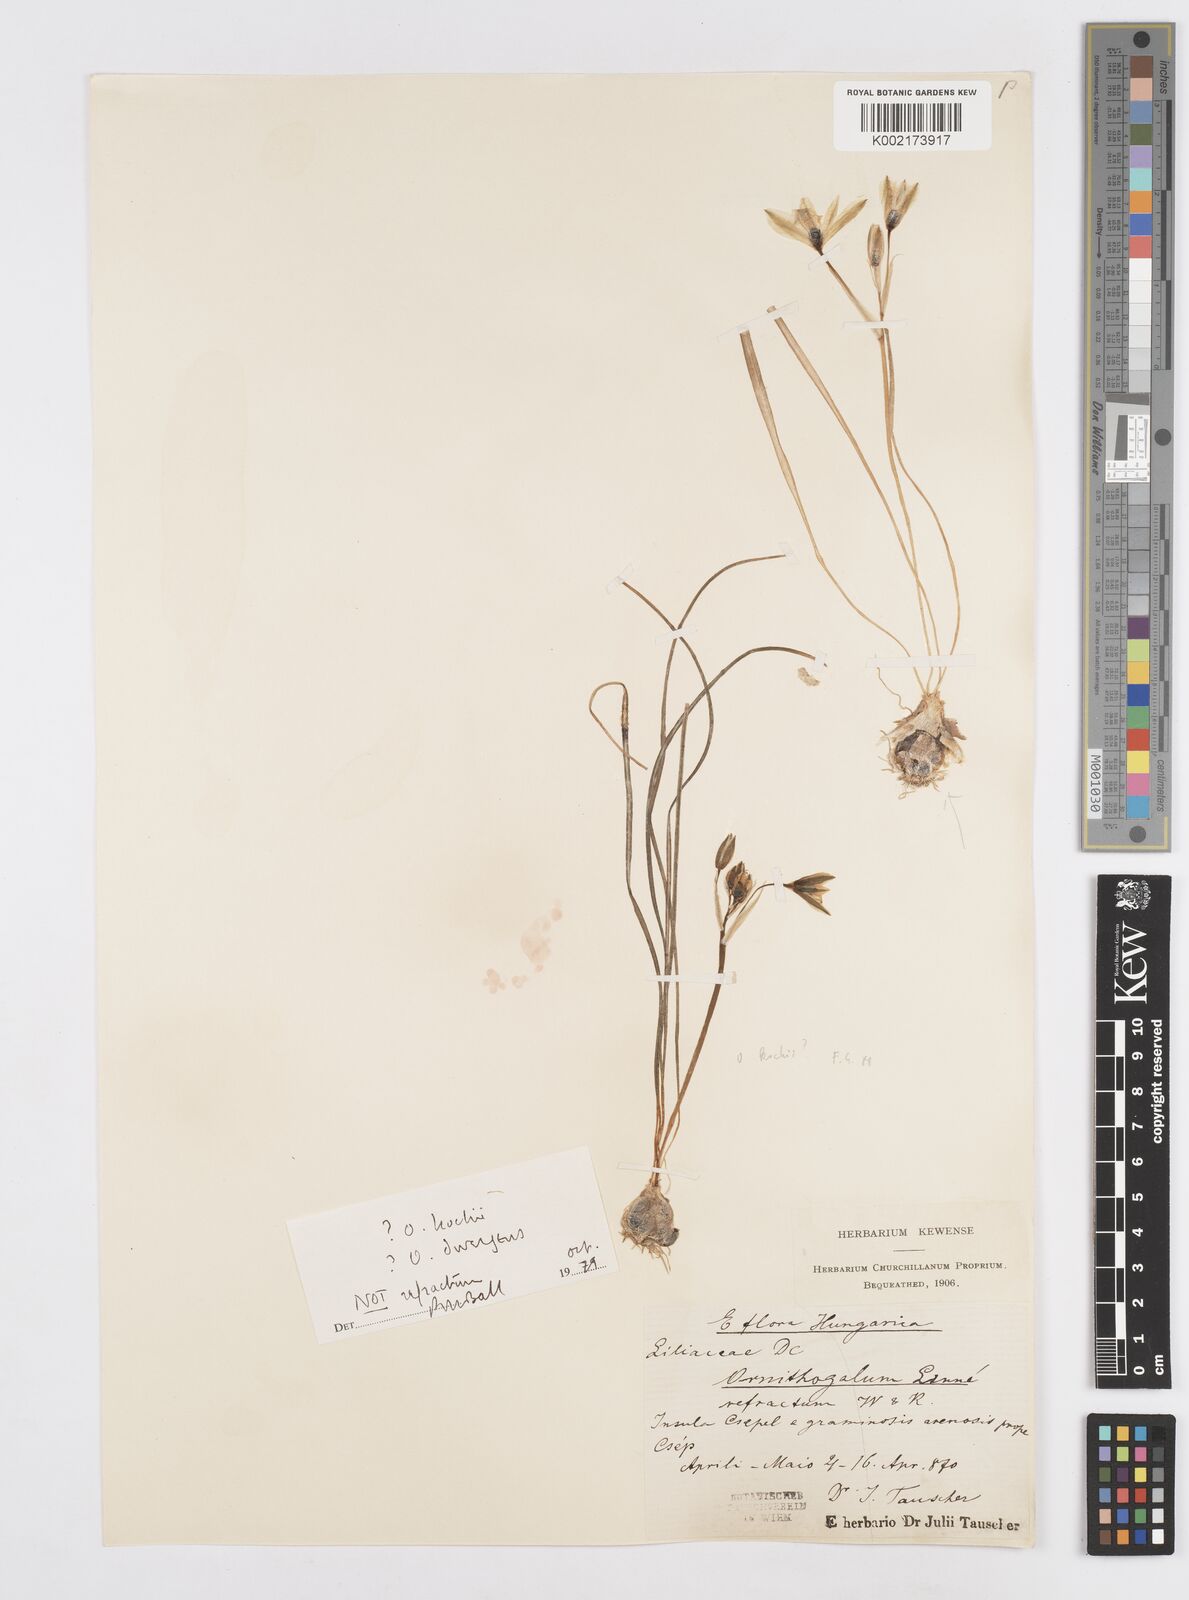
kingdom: Plantae
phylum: Tracheophyta
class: Liliopsida
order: Asparagales
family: Asparagaceae
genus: Ornithogalum
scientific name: Ornithogalum refractum
